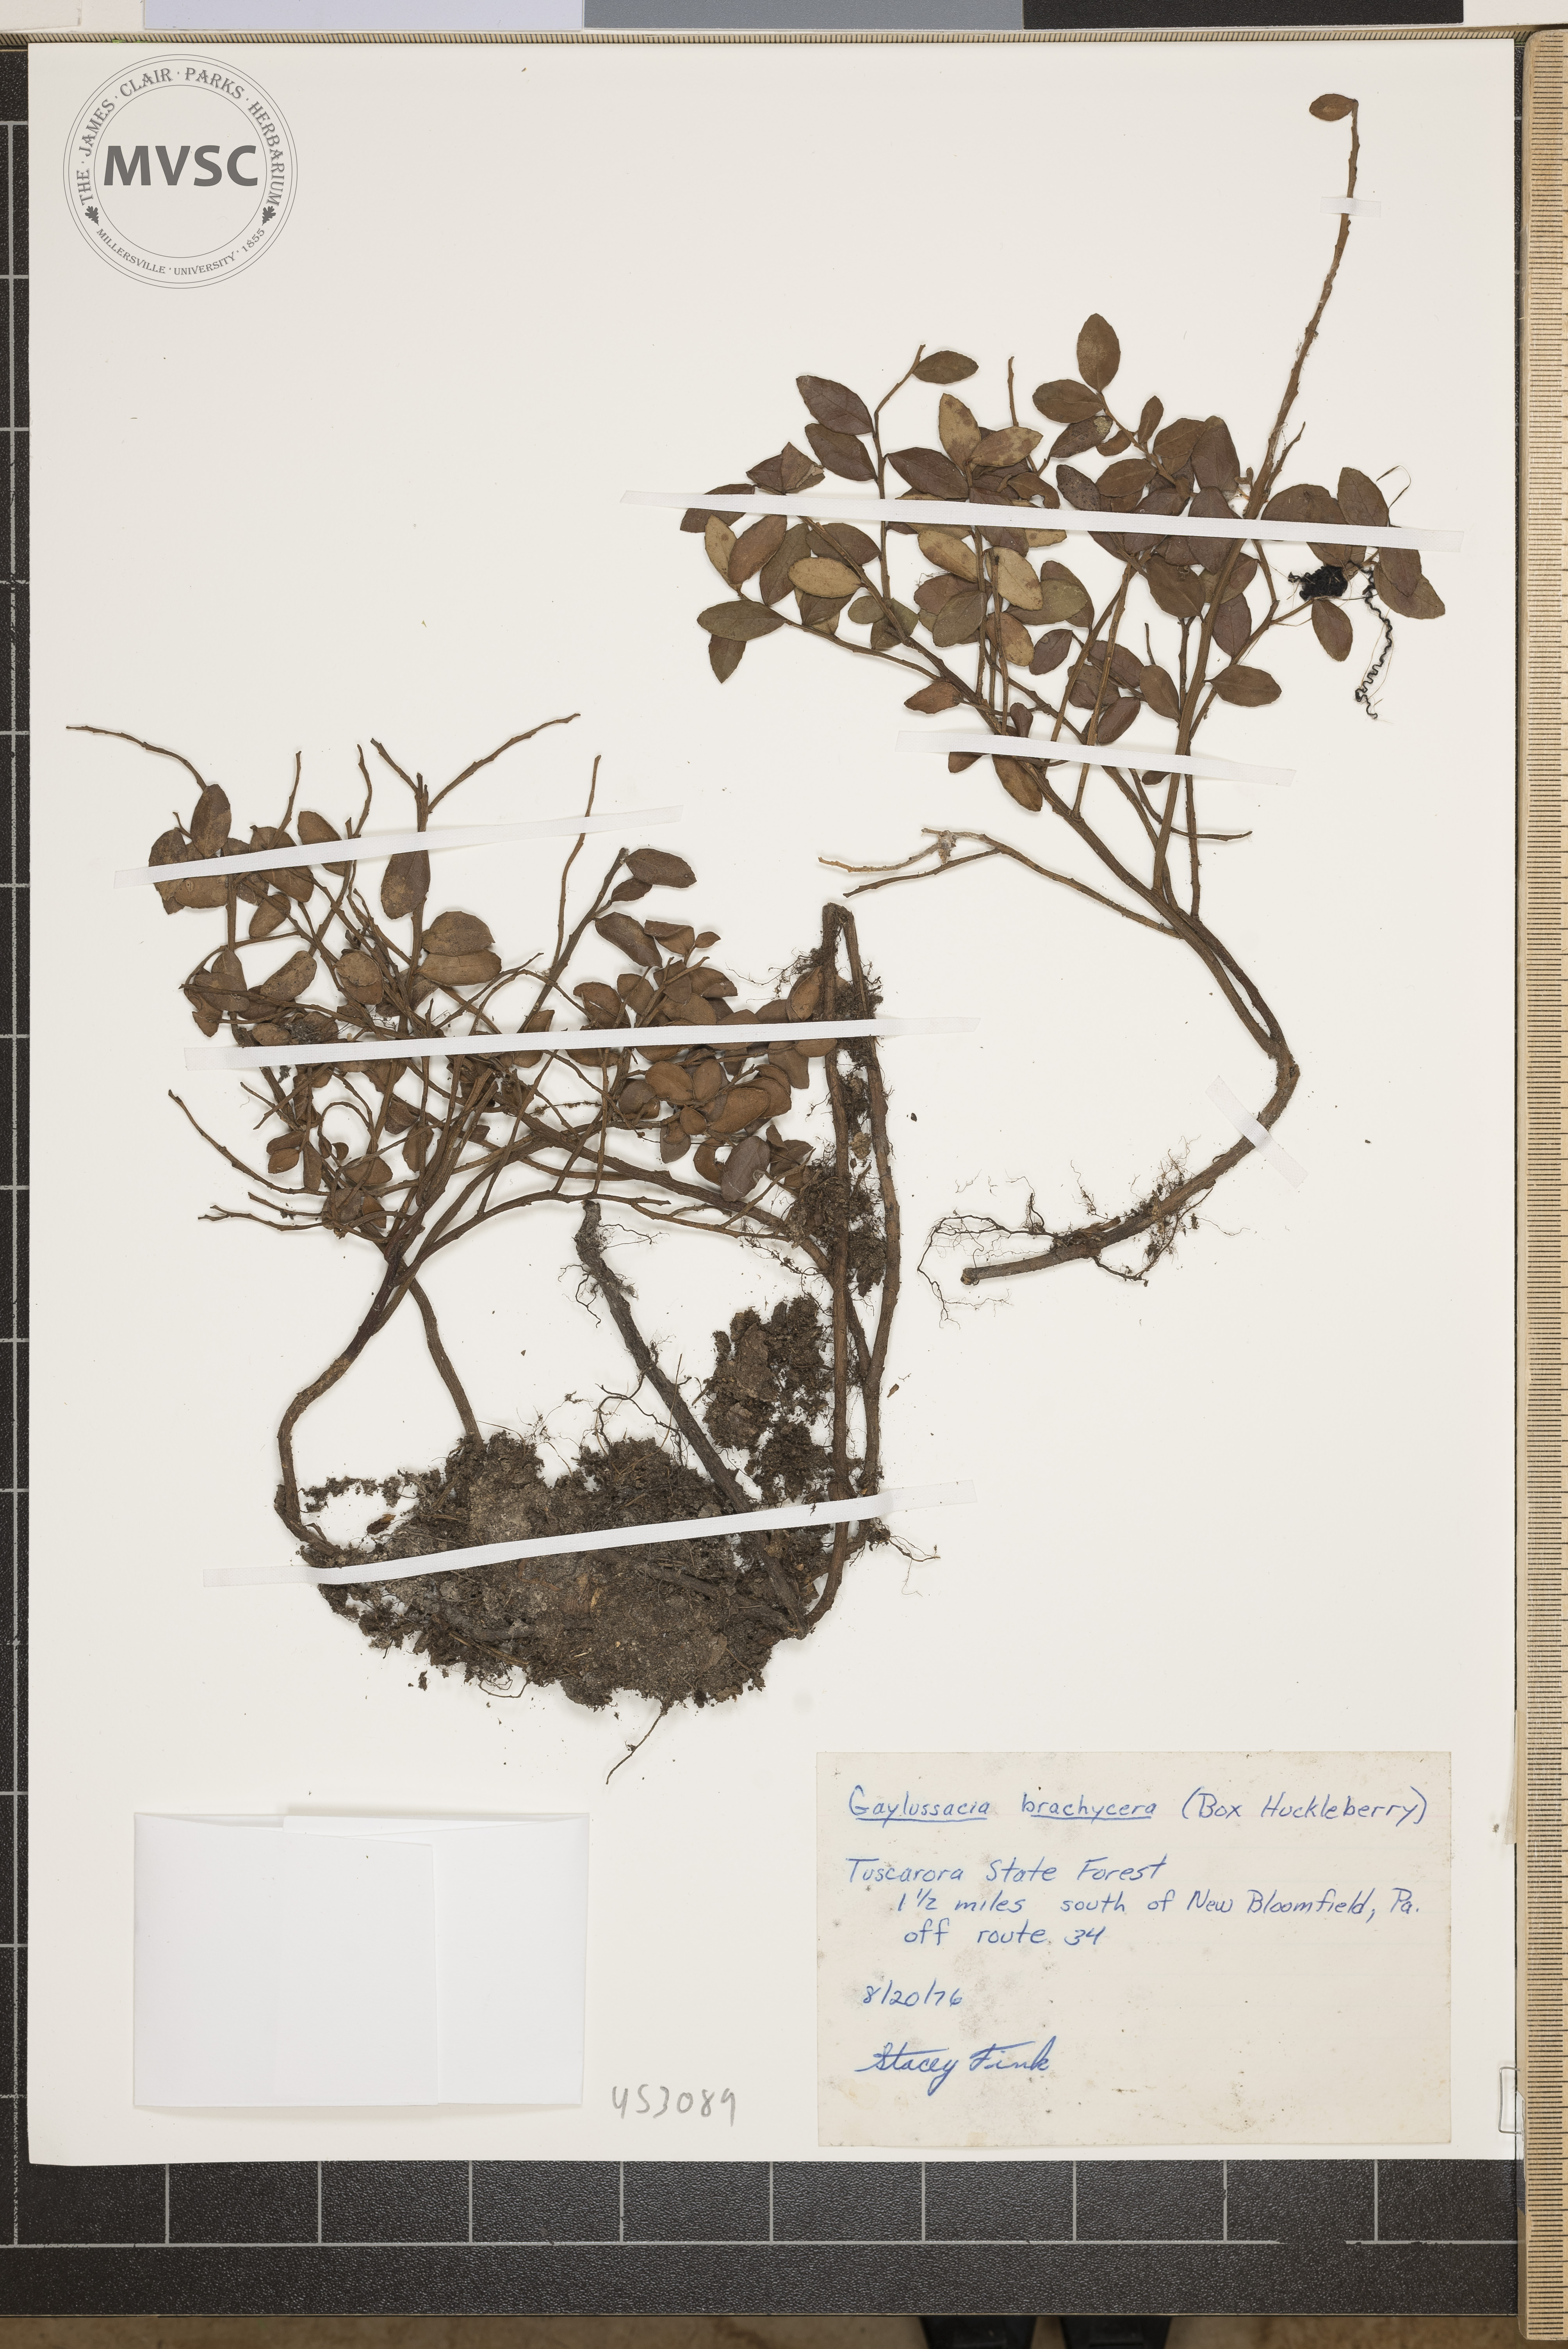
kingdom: Plantae
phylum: Tracheophyta
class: Magnoliopsida
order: Ericales
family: Ericaceae
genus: Gaylussacia
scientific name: Gaylussacia brachycera
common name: Box Huckleberry
